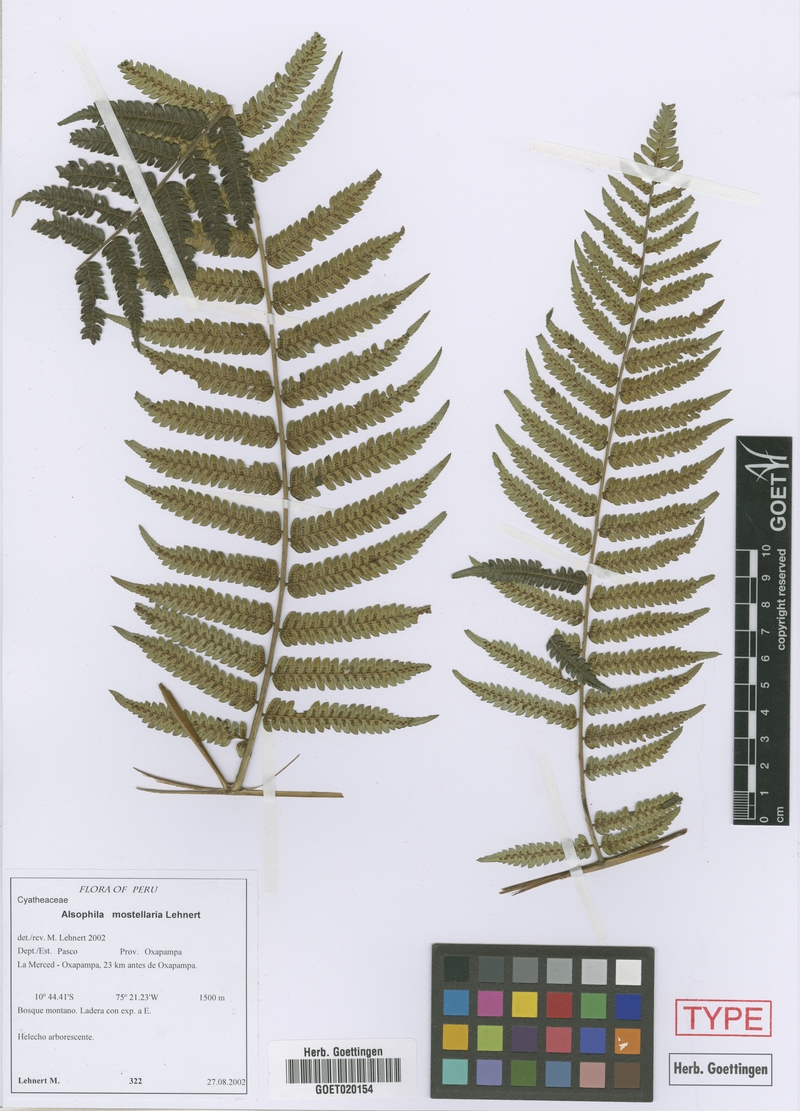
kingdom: Plantae
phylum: Tracheophyta
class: Polypodiopsida
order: Cyatheales
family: Cyatheaceae
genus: Alsophila
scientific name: Alsophila mostellaria
